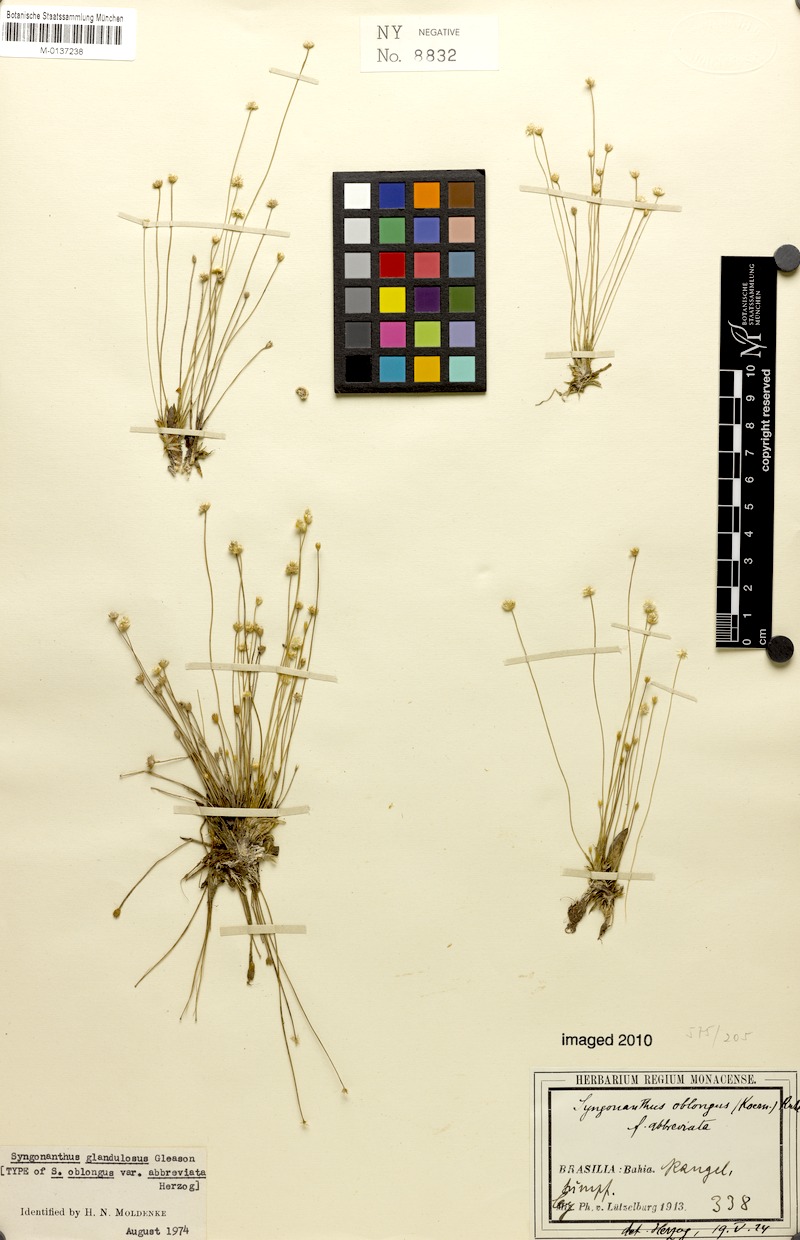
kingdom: Plantae
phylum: Tracheophyta
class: Liliopsida
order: Poales
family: Eriocaulaceae
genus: Syngonanthus
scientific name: Syngonanthus caulescens
